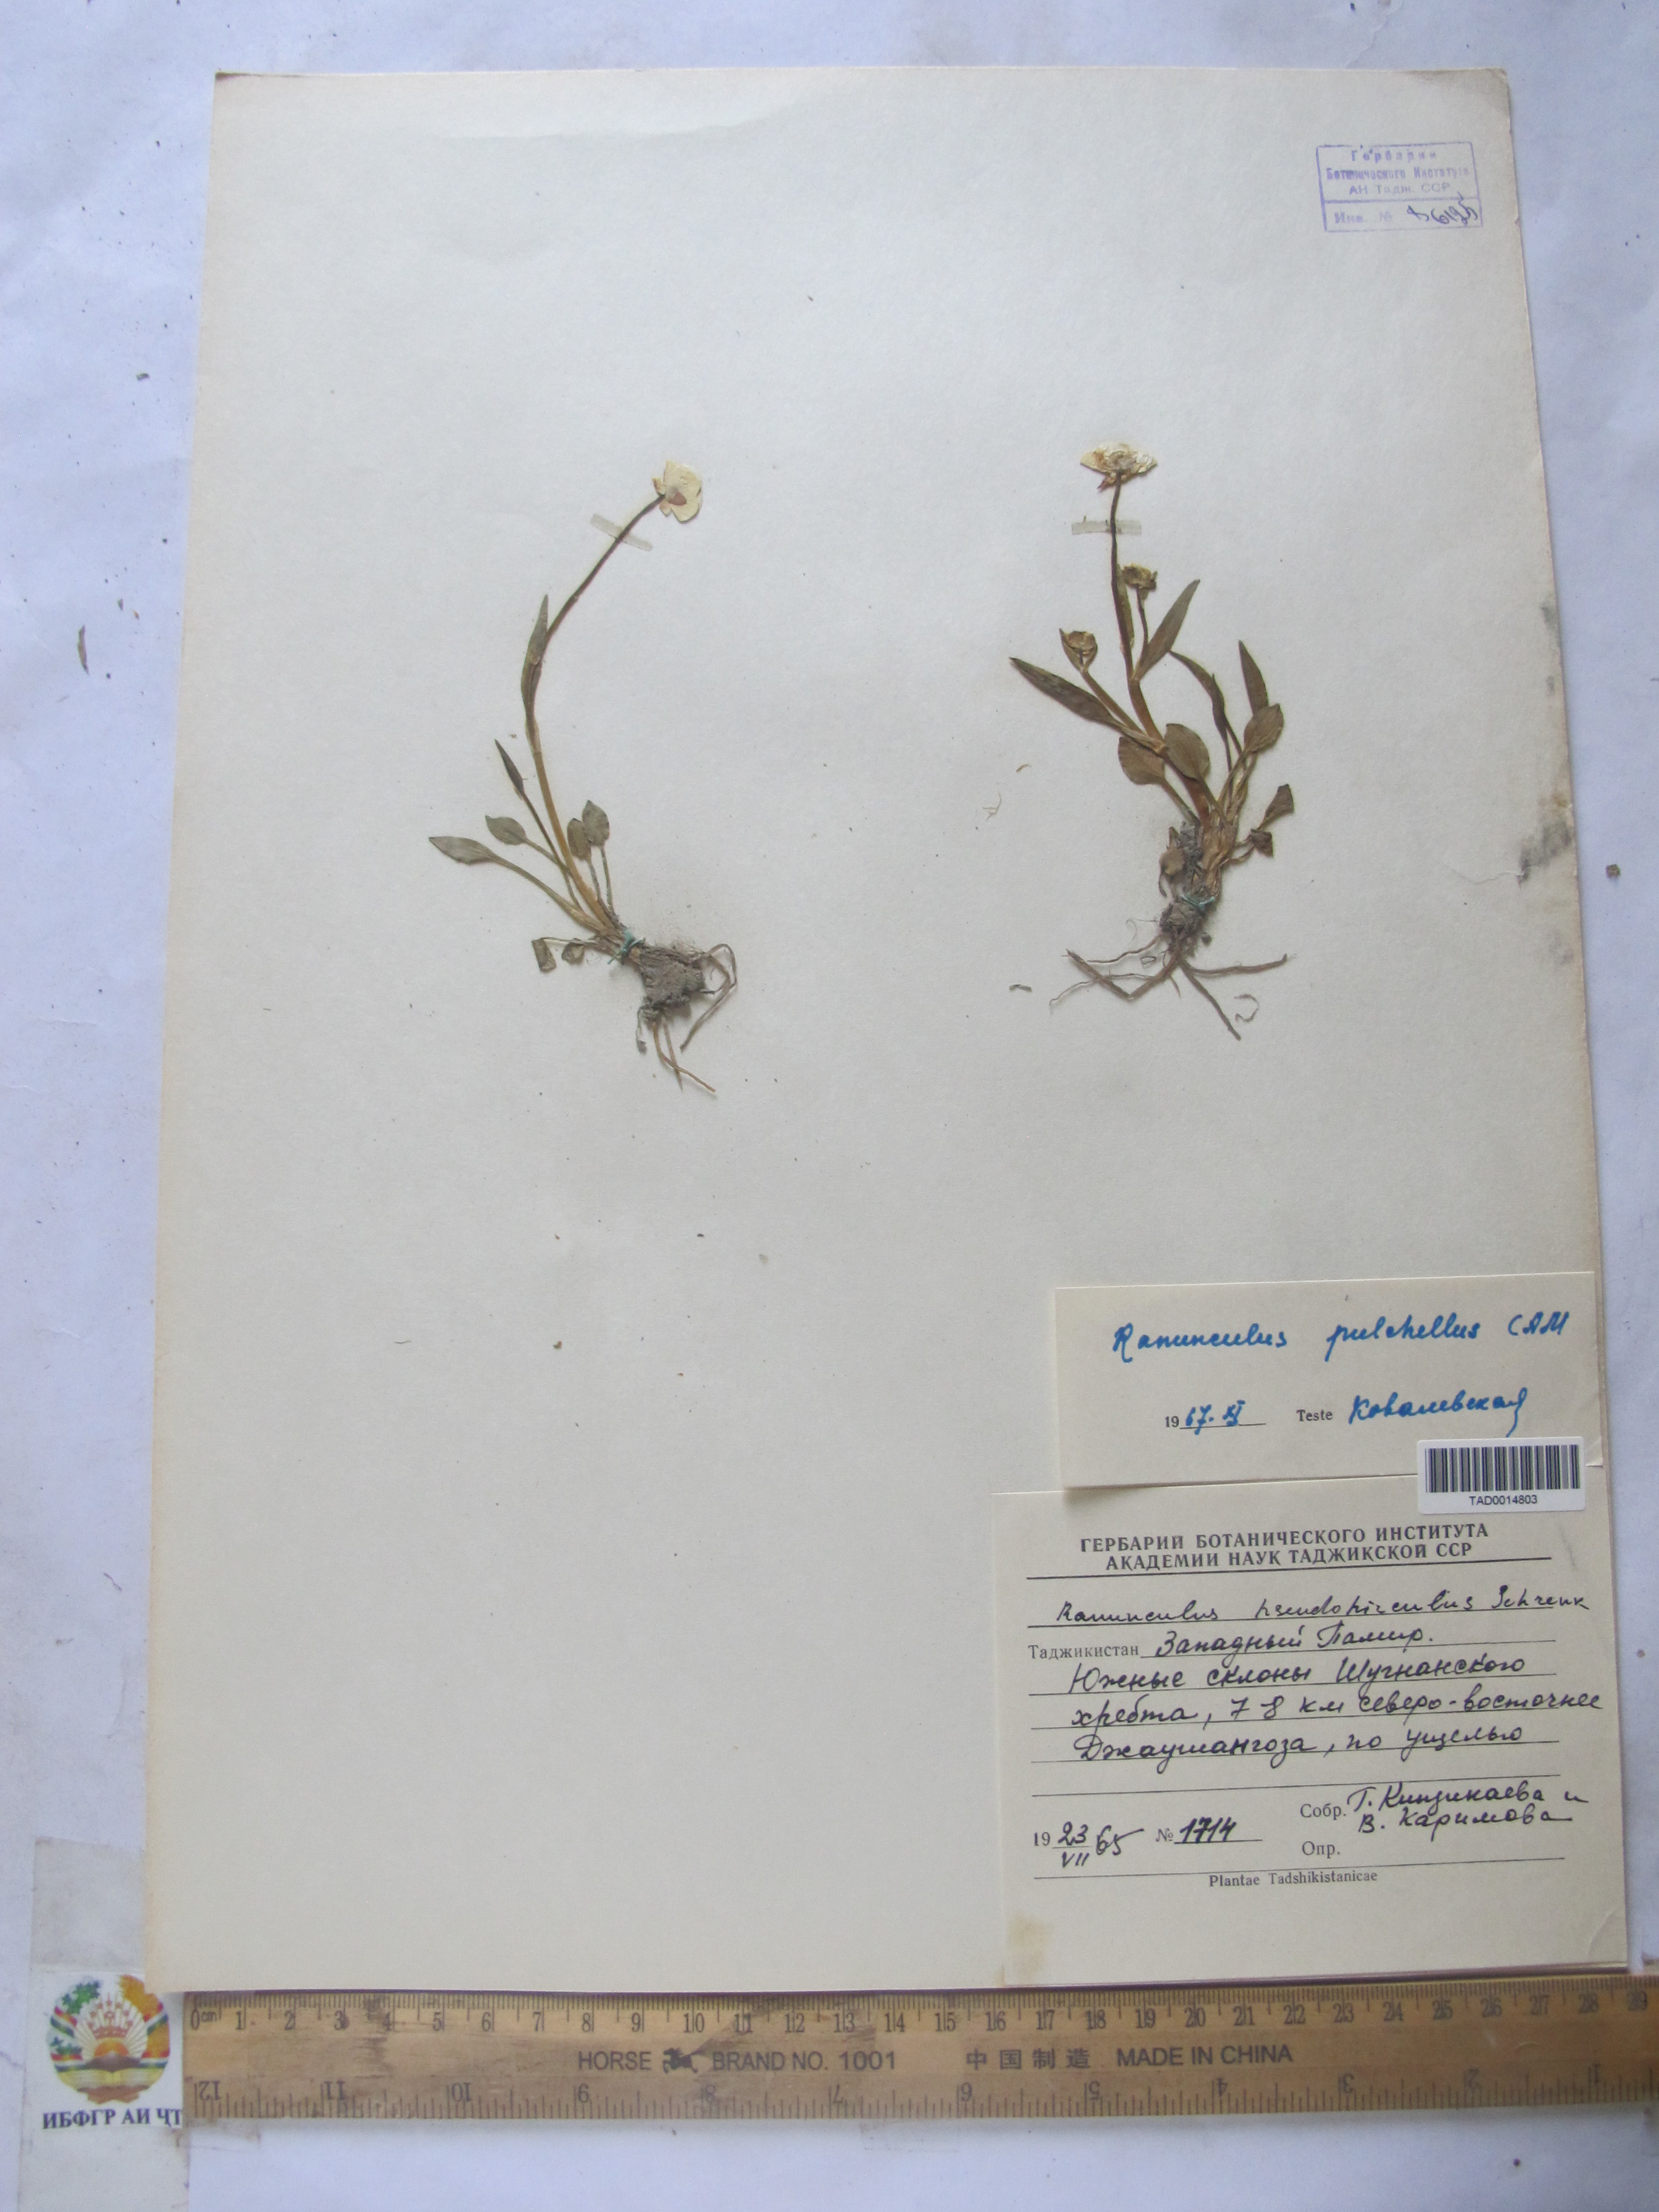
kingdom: Plantae
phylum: Tracheophyta
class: Magnoliopsida
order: Ranunculales
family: Ranunculaceae
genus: Ranunculus
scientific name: Ranunculus pseudohirculus
